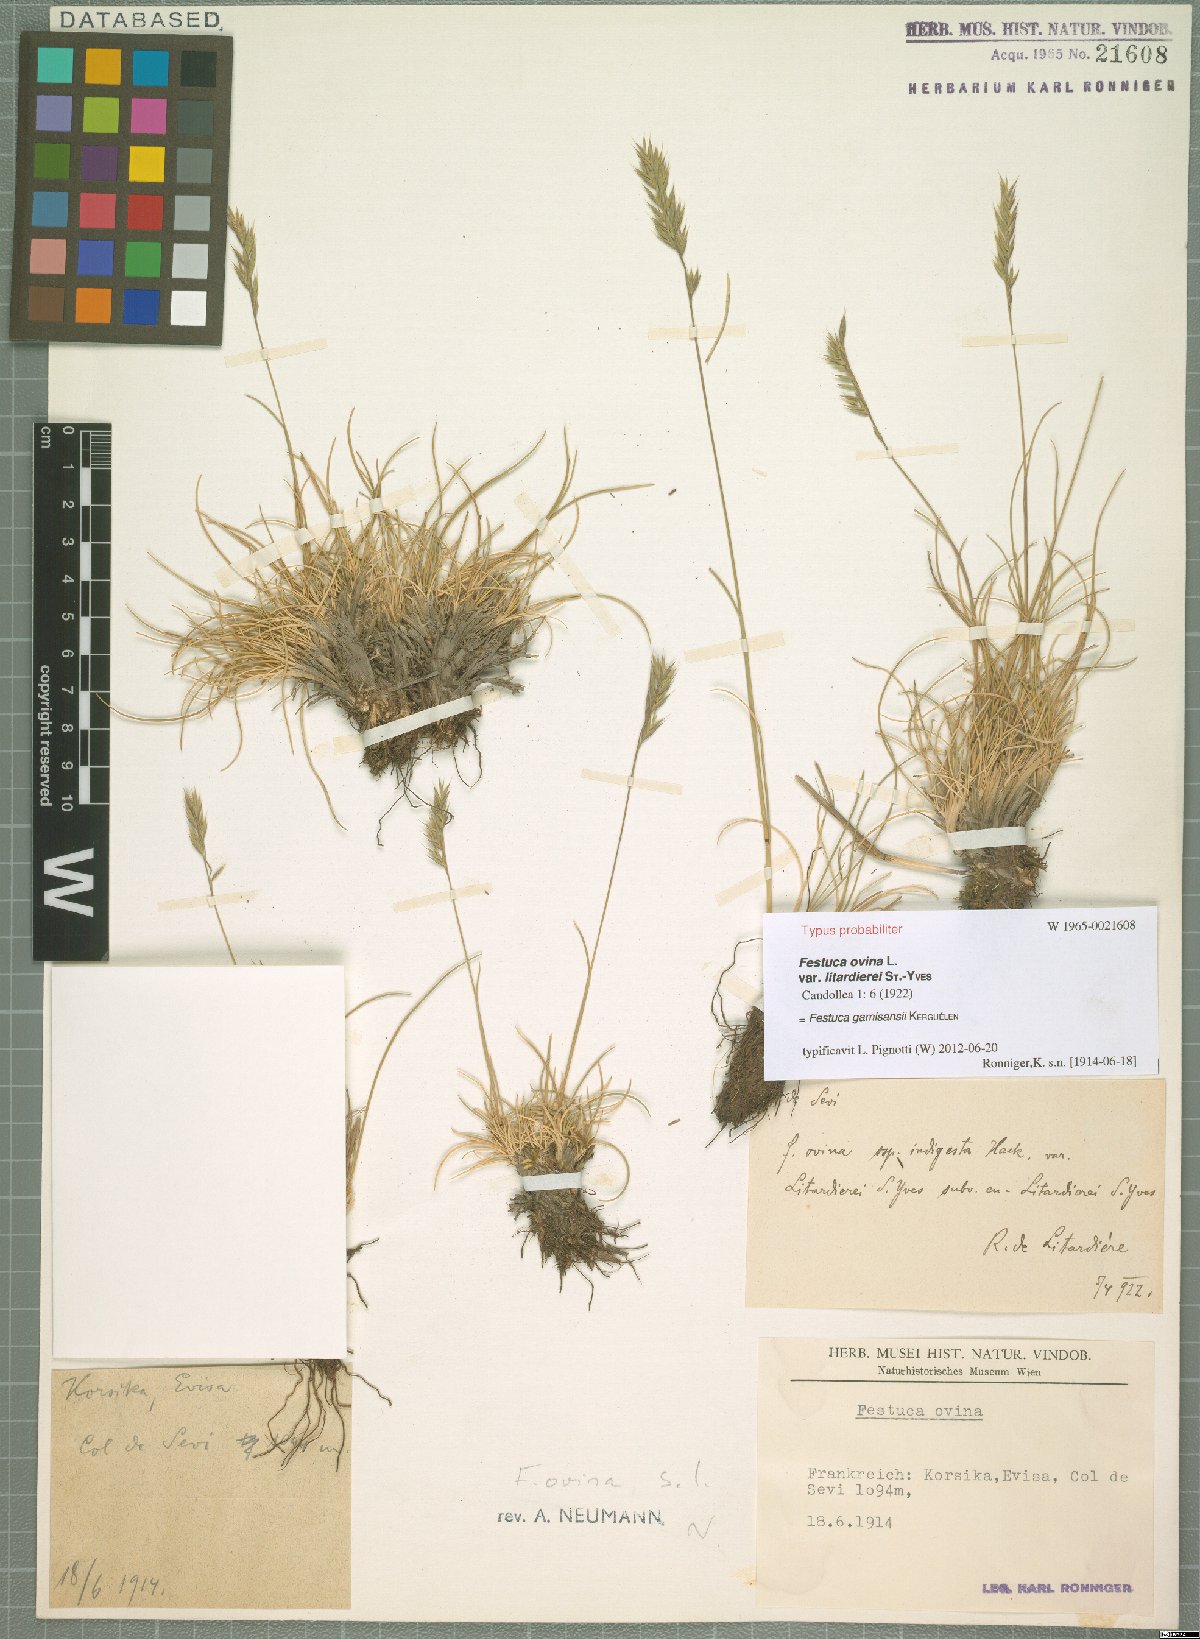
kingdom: Plantae
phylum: Tracheophyta
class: Liliopsida
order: Poales
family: Poaceae
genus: Festuca
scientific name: Festuca gamisansii
